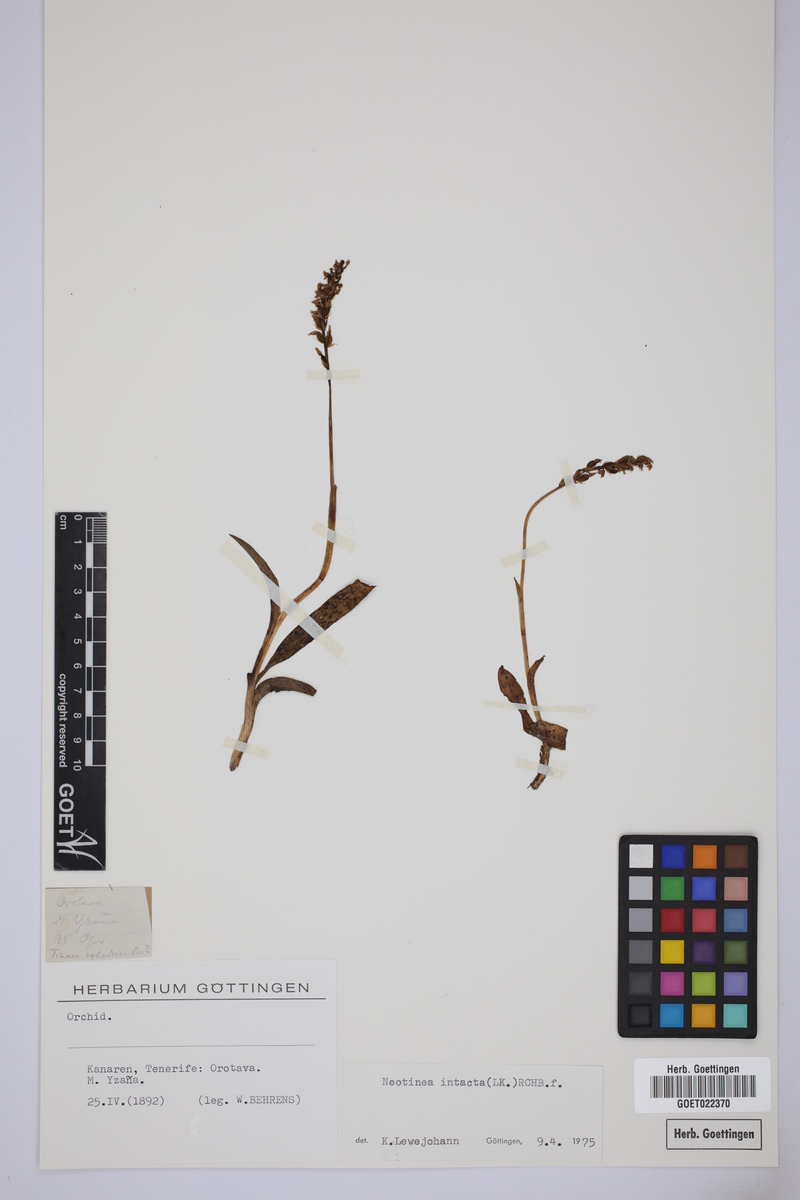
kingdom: Plantae
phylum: Tracheophyta
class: Liliopsida
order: Asparagales
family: Orchidaceae
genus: Neotinea
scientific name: Neotinea maculata
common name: Dense-flowered orchid
